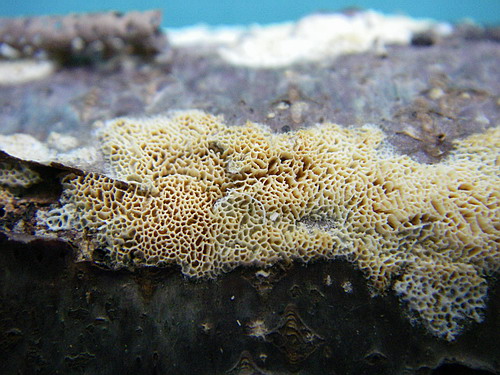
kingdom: Fungi
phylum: Basidiomycota
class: Agaricomycetes
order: Hymenochaetales
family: Schizoporaceae
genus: Xylodon
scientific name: Xylodon subtropicus
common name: labyrint-tandsvamp
